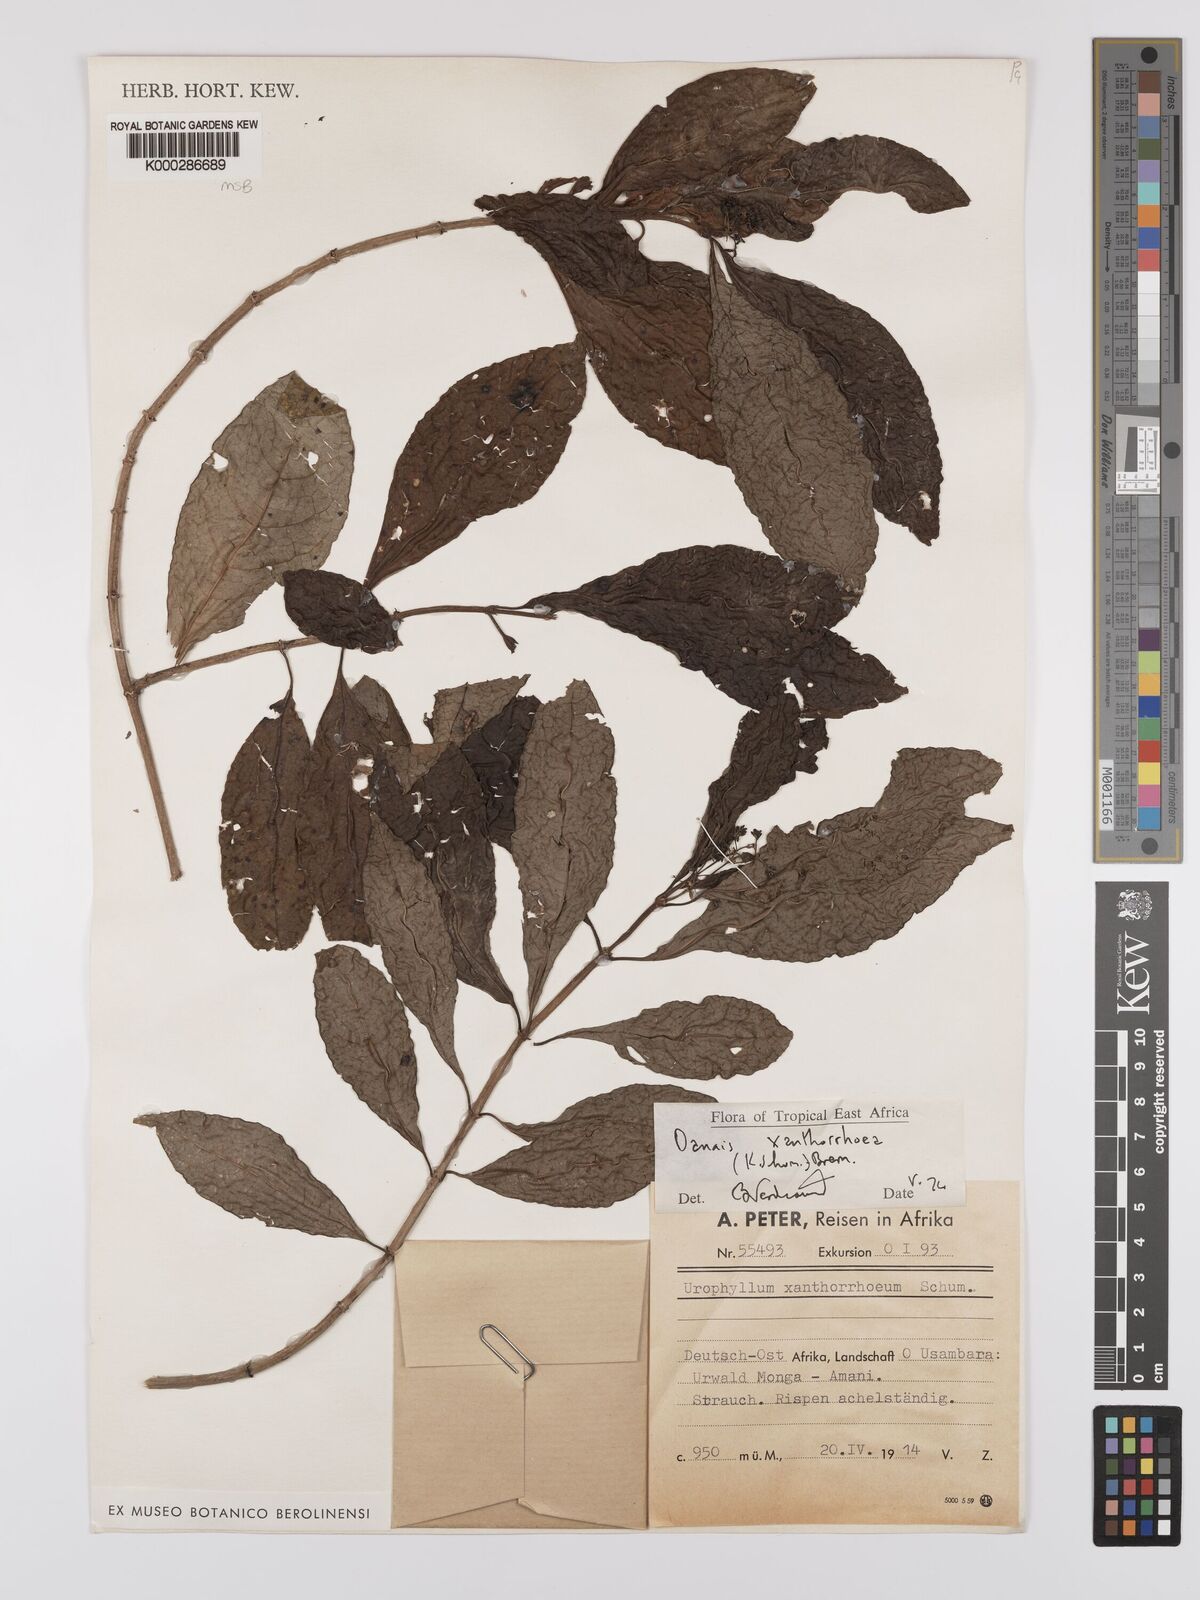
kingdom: Plantae
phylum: Tracheophyta
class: Magnoliopsida
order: Gentianales
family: Rubiaceae
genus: Danais
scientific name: Danais xanthorrhoea
